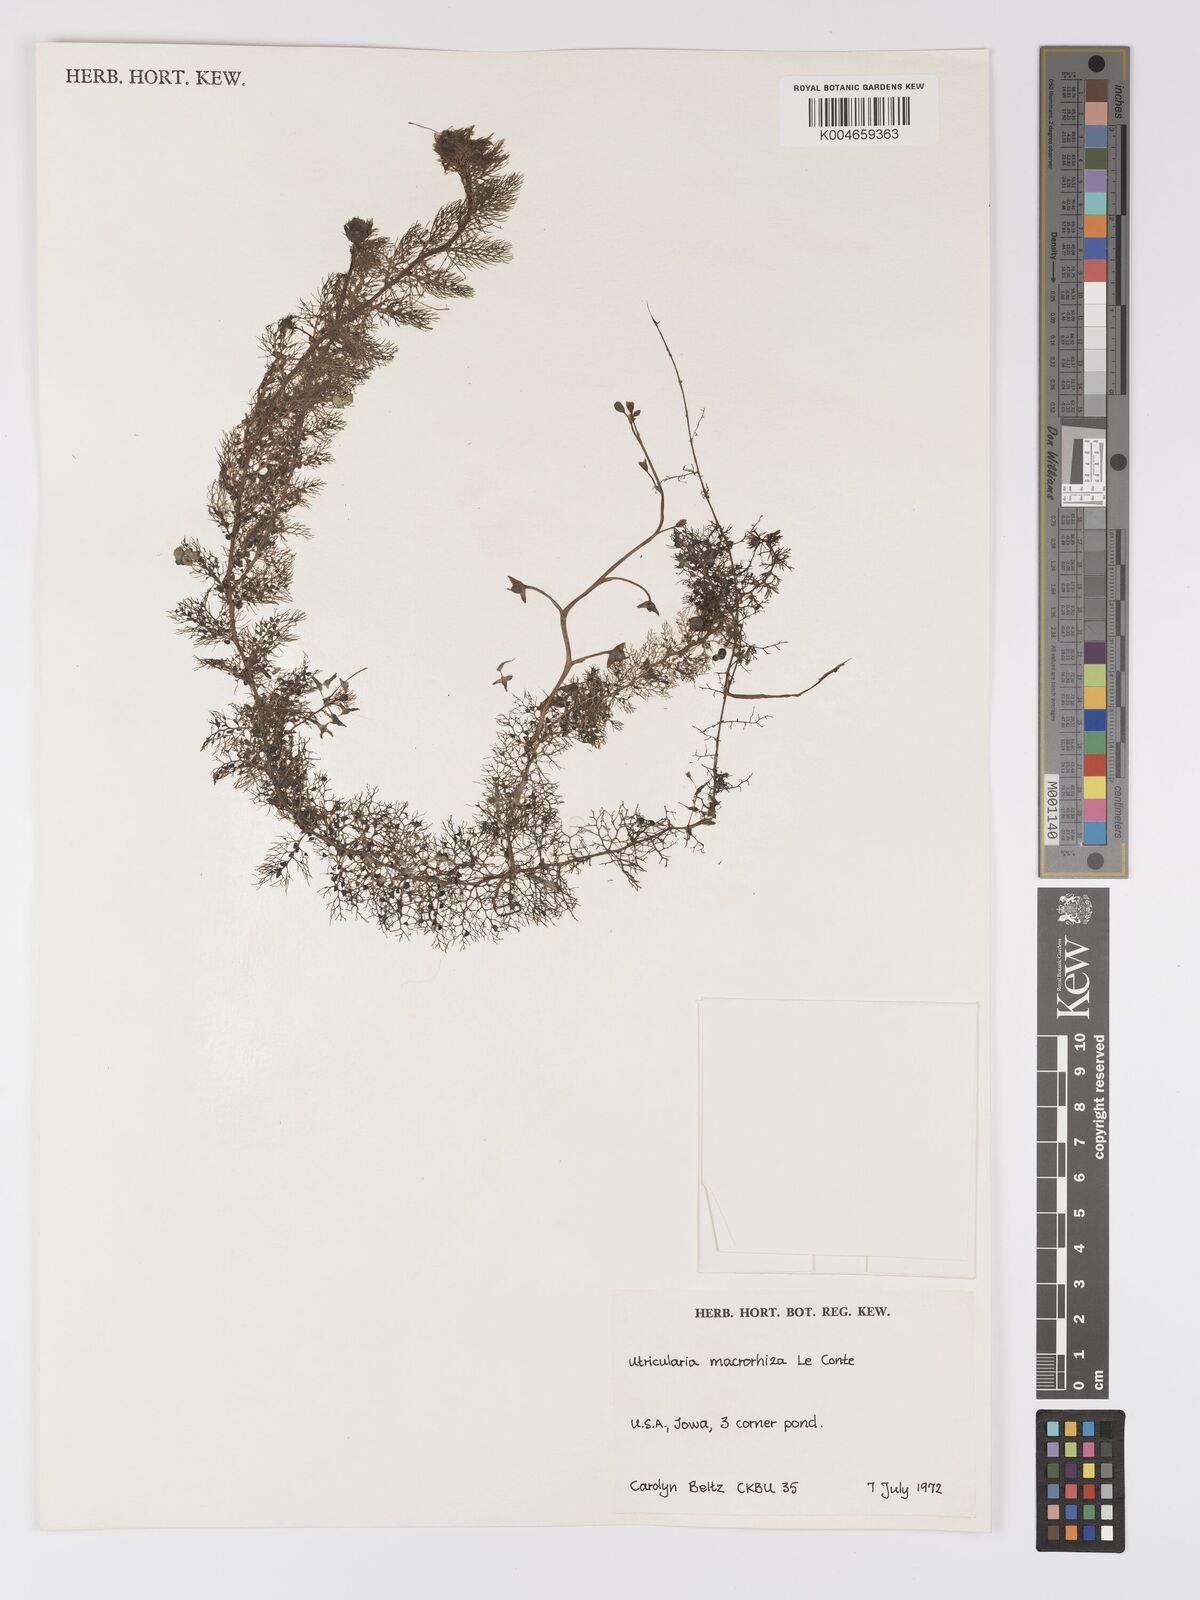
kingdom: Plantae
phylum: Tracheophyta
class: Magnoliopsida
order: Lamiales
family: Lentibulariaceae
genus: Utricularia
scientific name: Utricularia macrorhiza
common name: Common bladderwort
